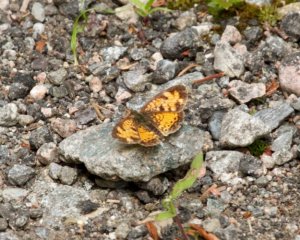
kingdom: Animalia
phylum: Arthropoda
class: Insecta
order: Lepidoptera
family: Nymphalidae
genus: Phyciodes
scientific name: Phyciodes tharos
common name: Northern Crescent
